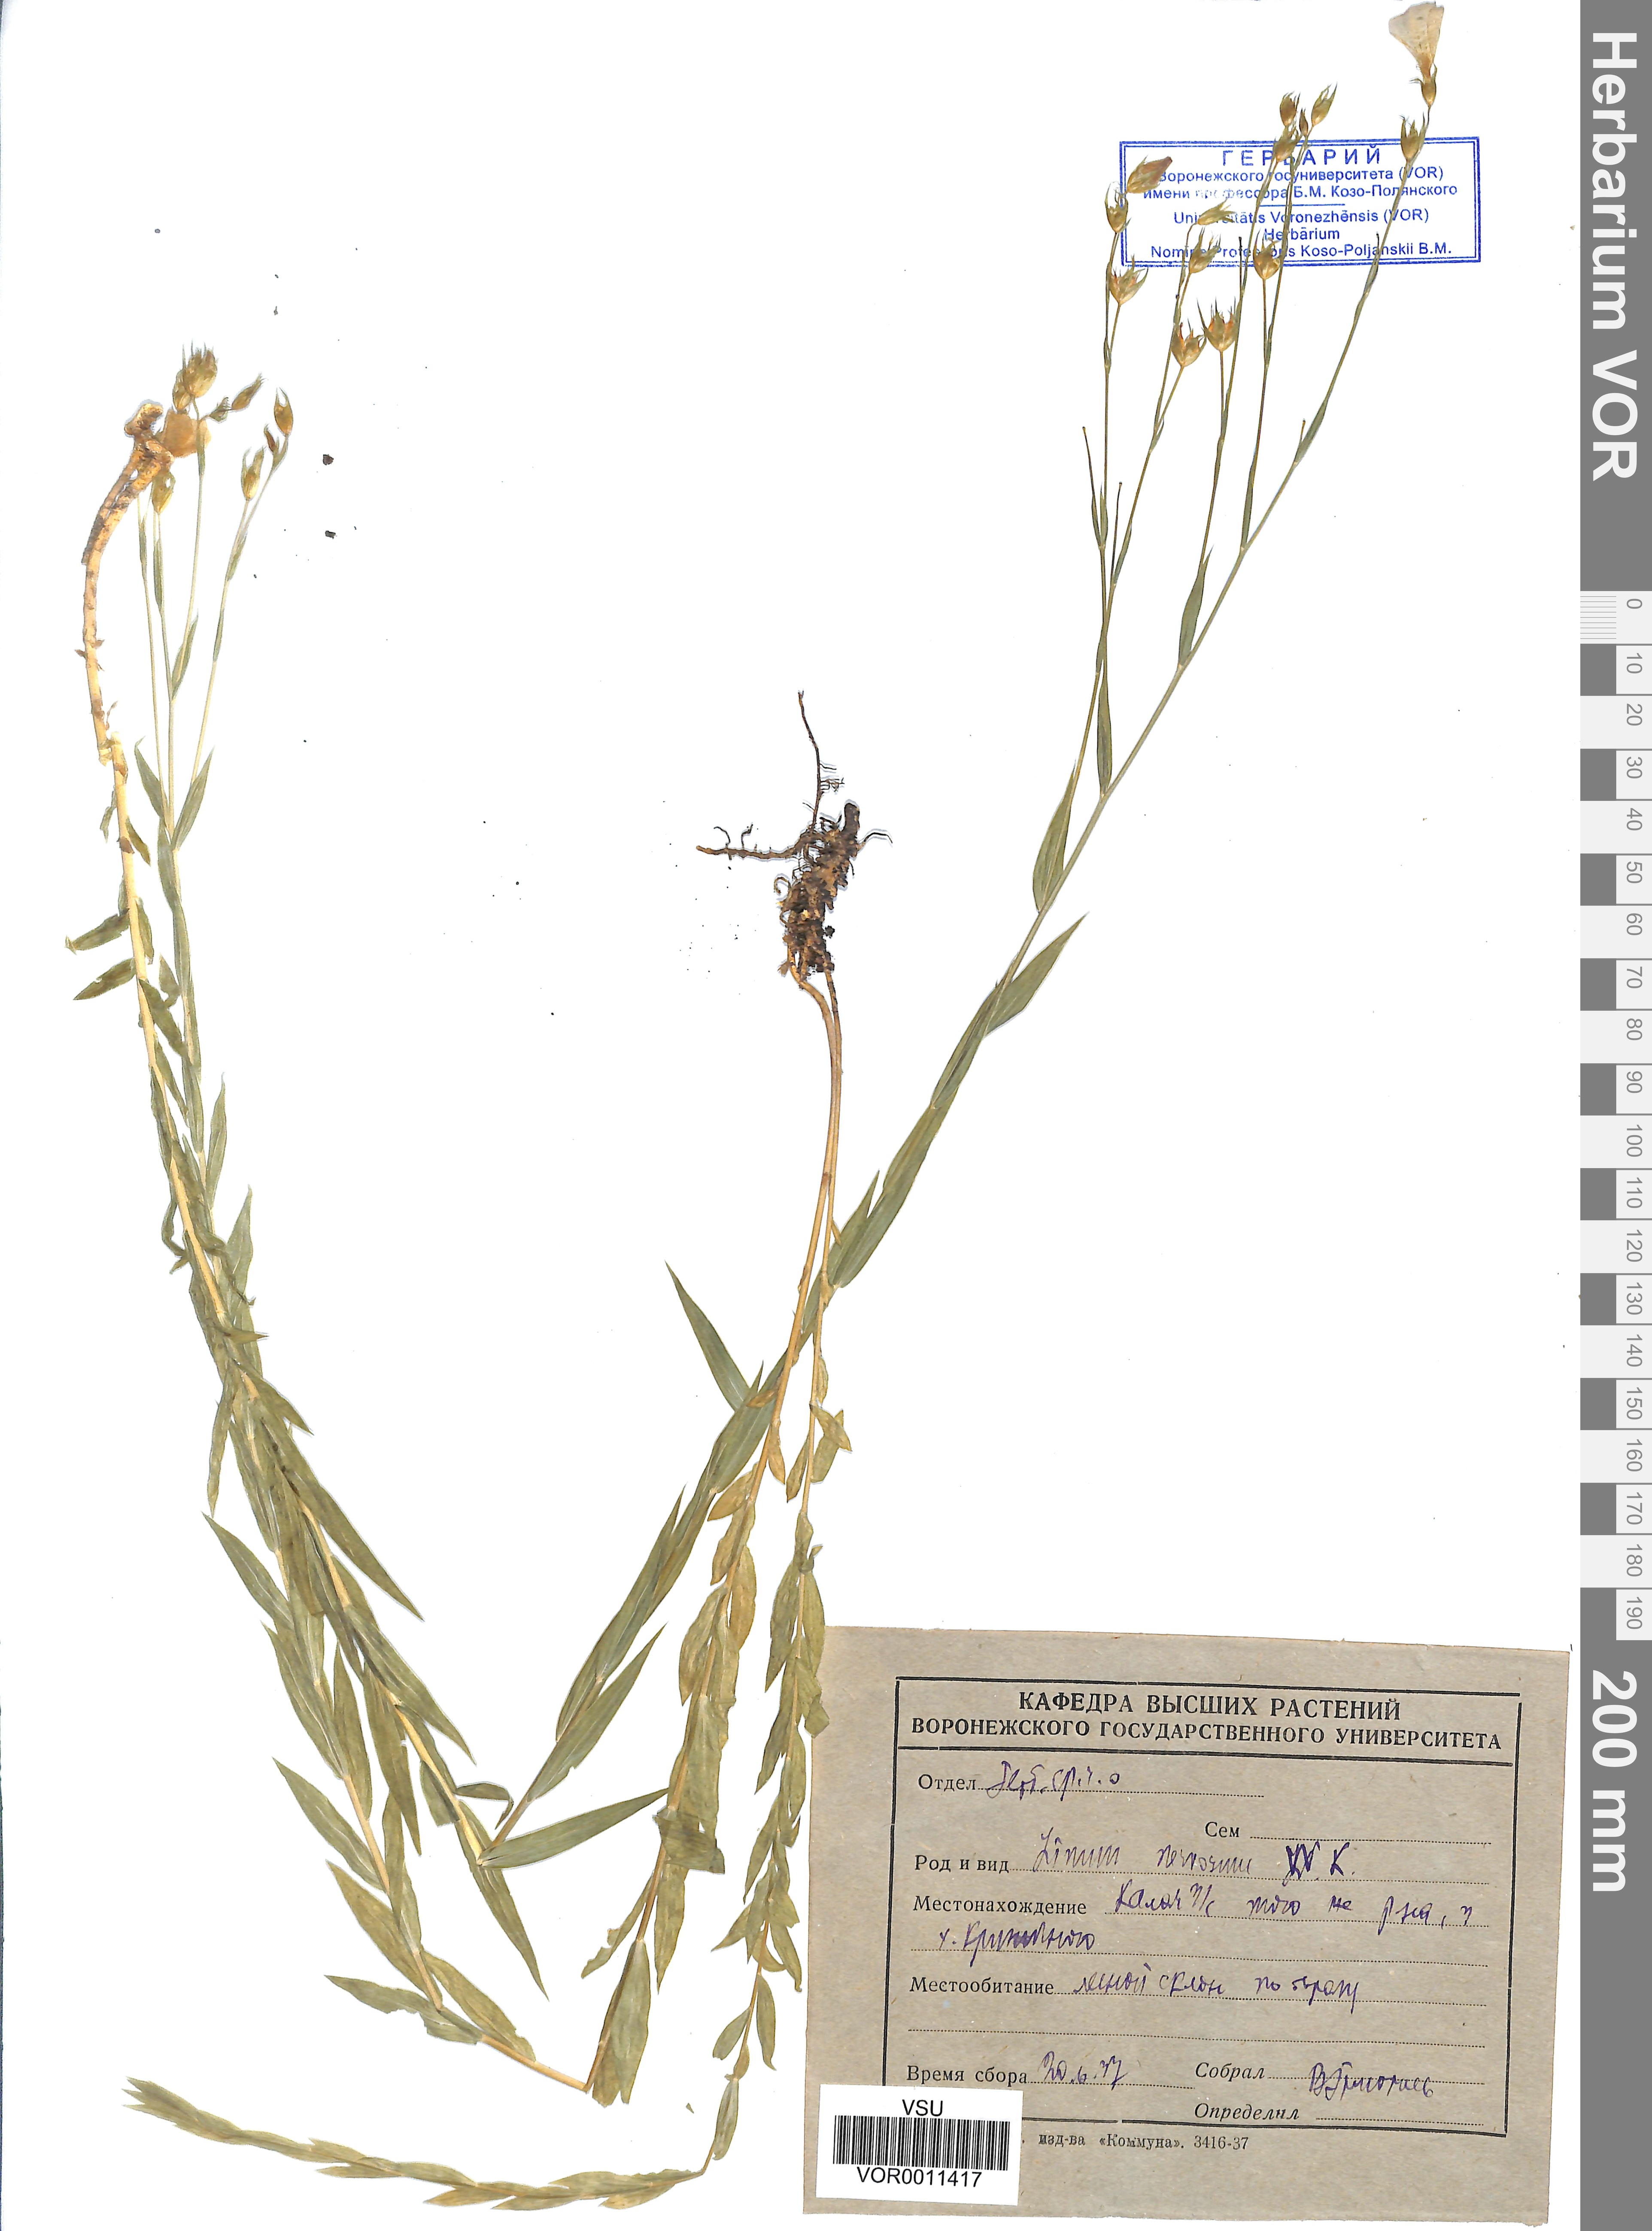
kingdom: Plantae
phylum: Tracheophyta
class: Magnoliopsida
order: Malpighiales
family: Linaceae
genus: Linum
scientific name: Linum nervosum
